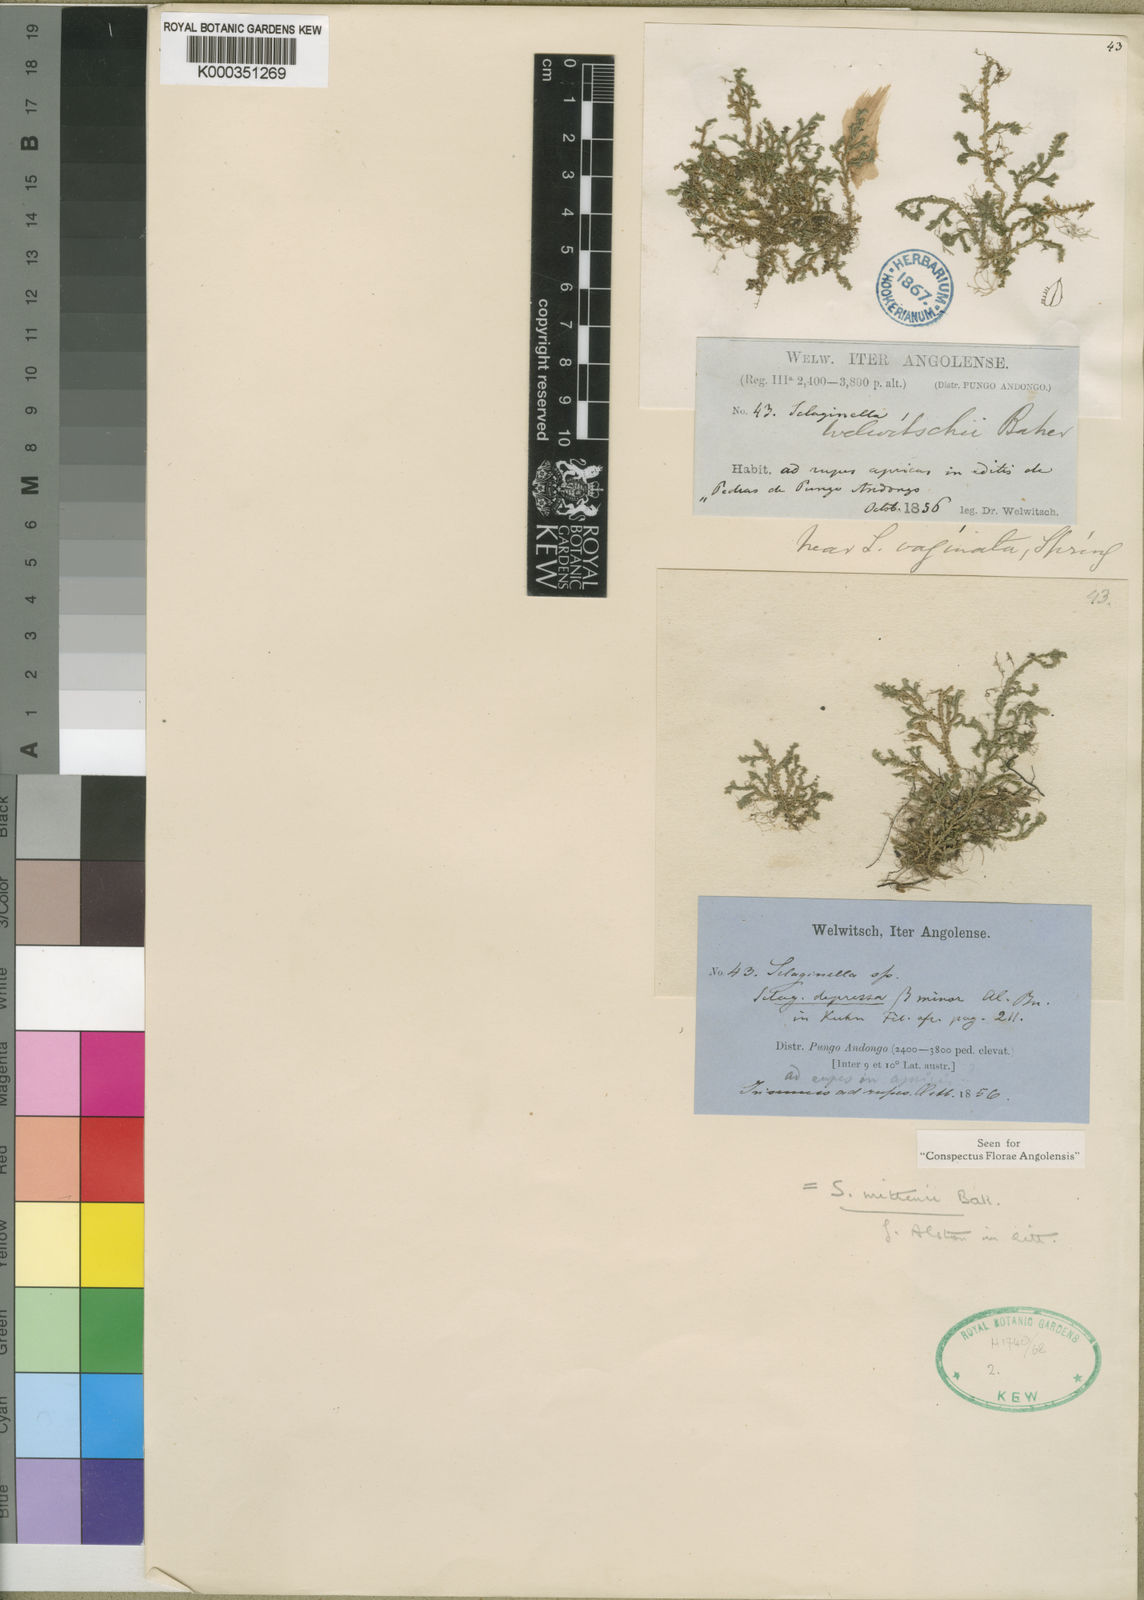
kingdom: Plantae
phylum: Tracheophyta
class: Lycopodiopsida
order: Selaginellales
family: Selaginellaceae
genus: Selaginella
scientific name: Selaginella mittenii
